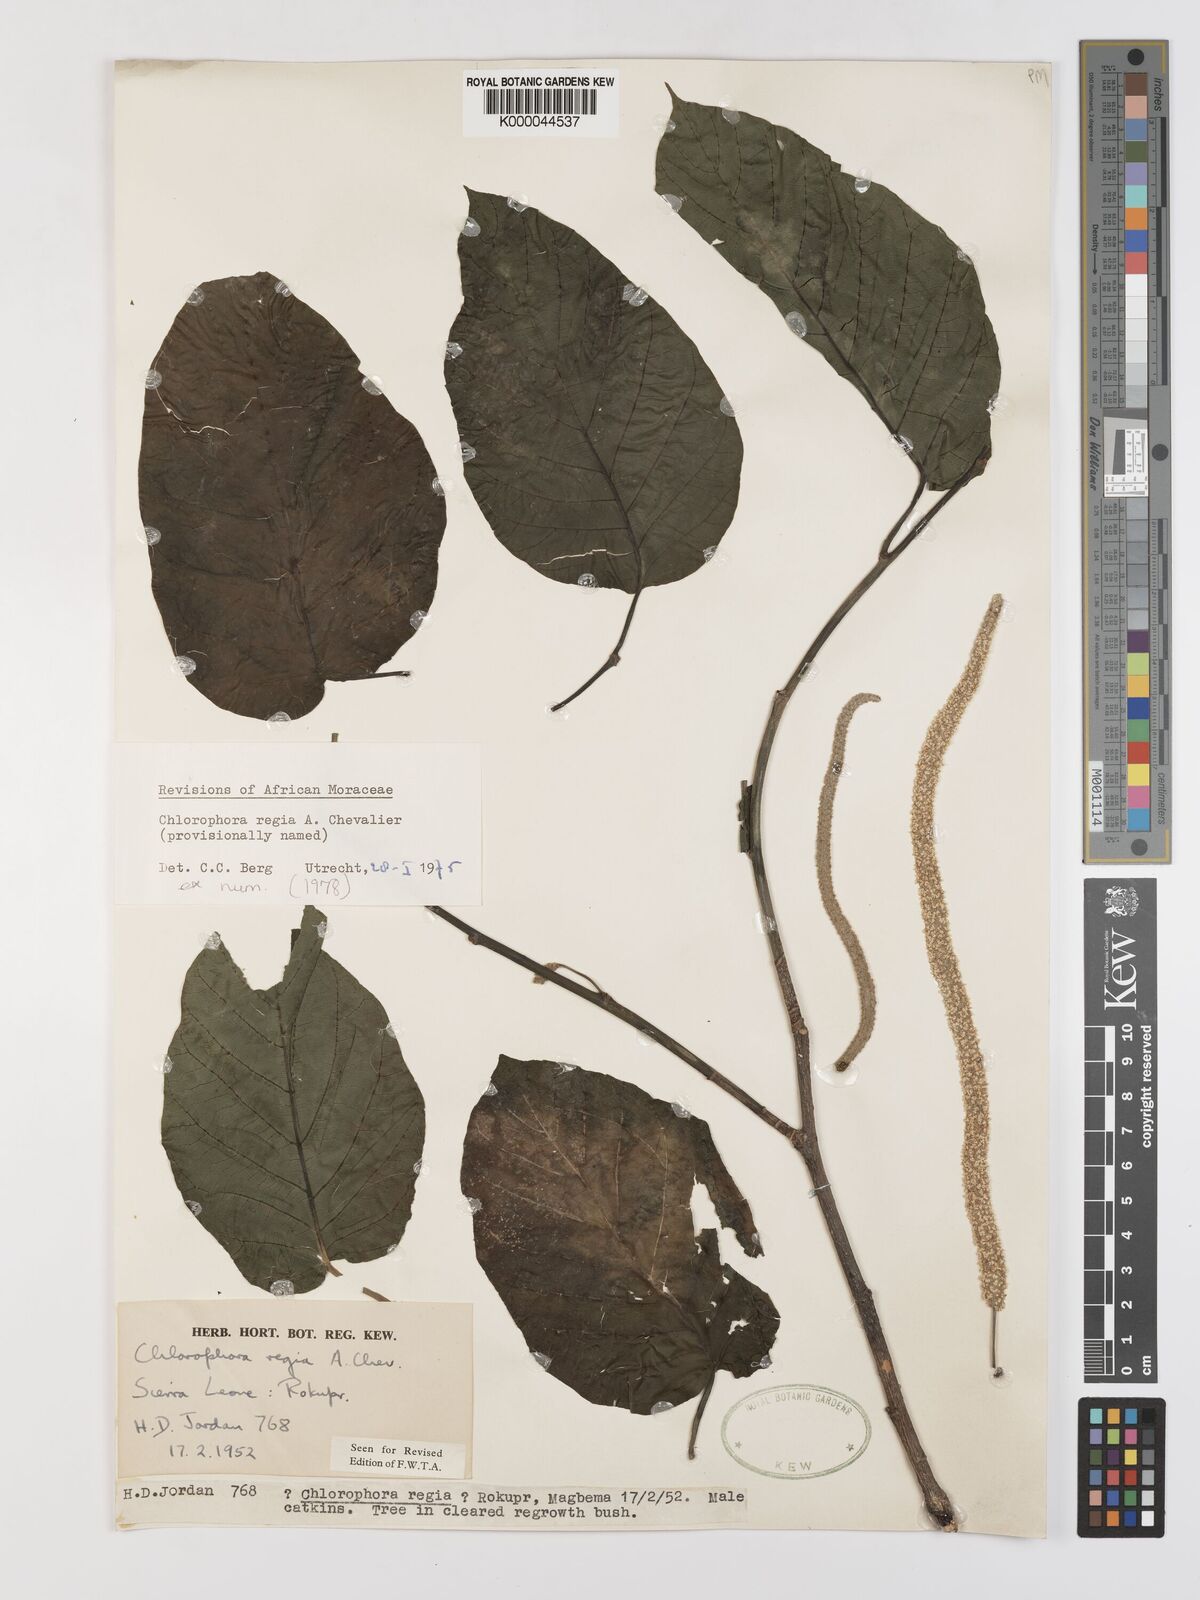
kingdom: Plantae
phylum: Tracheophyta
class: Magnoliopsida
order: Rosales
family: Moraceae
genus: Milicia
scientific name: Milicia regia
